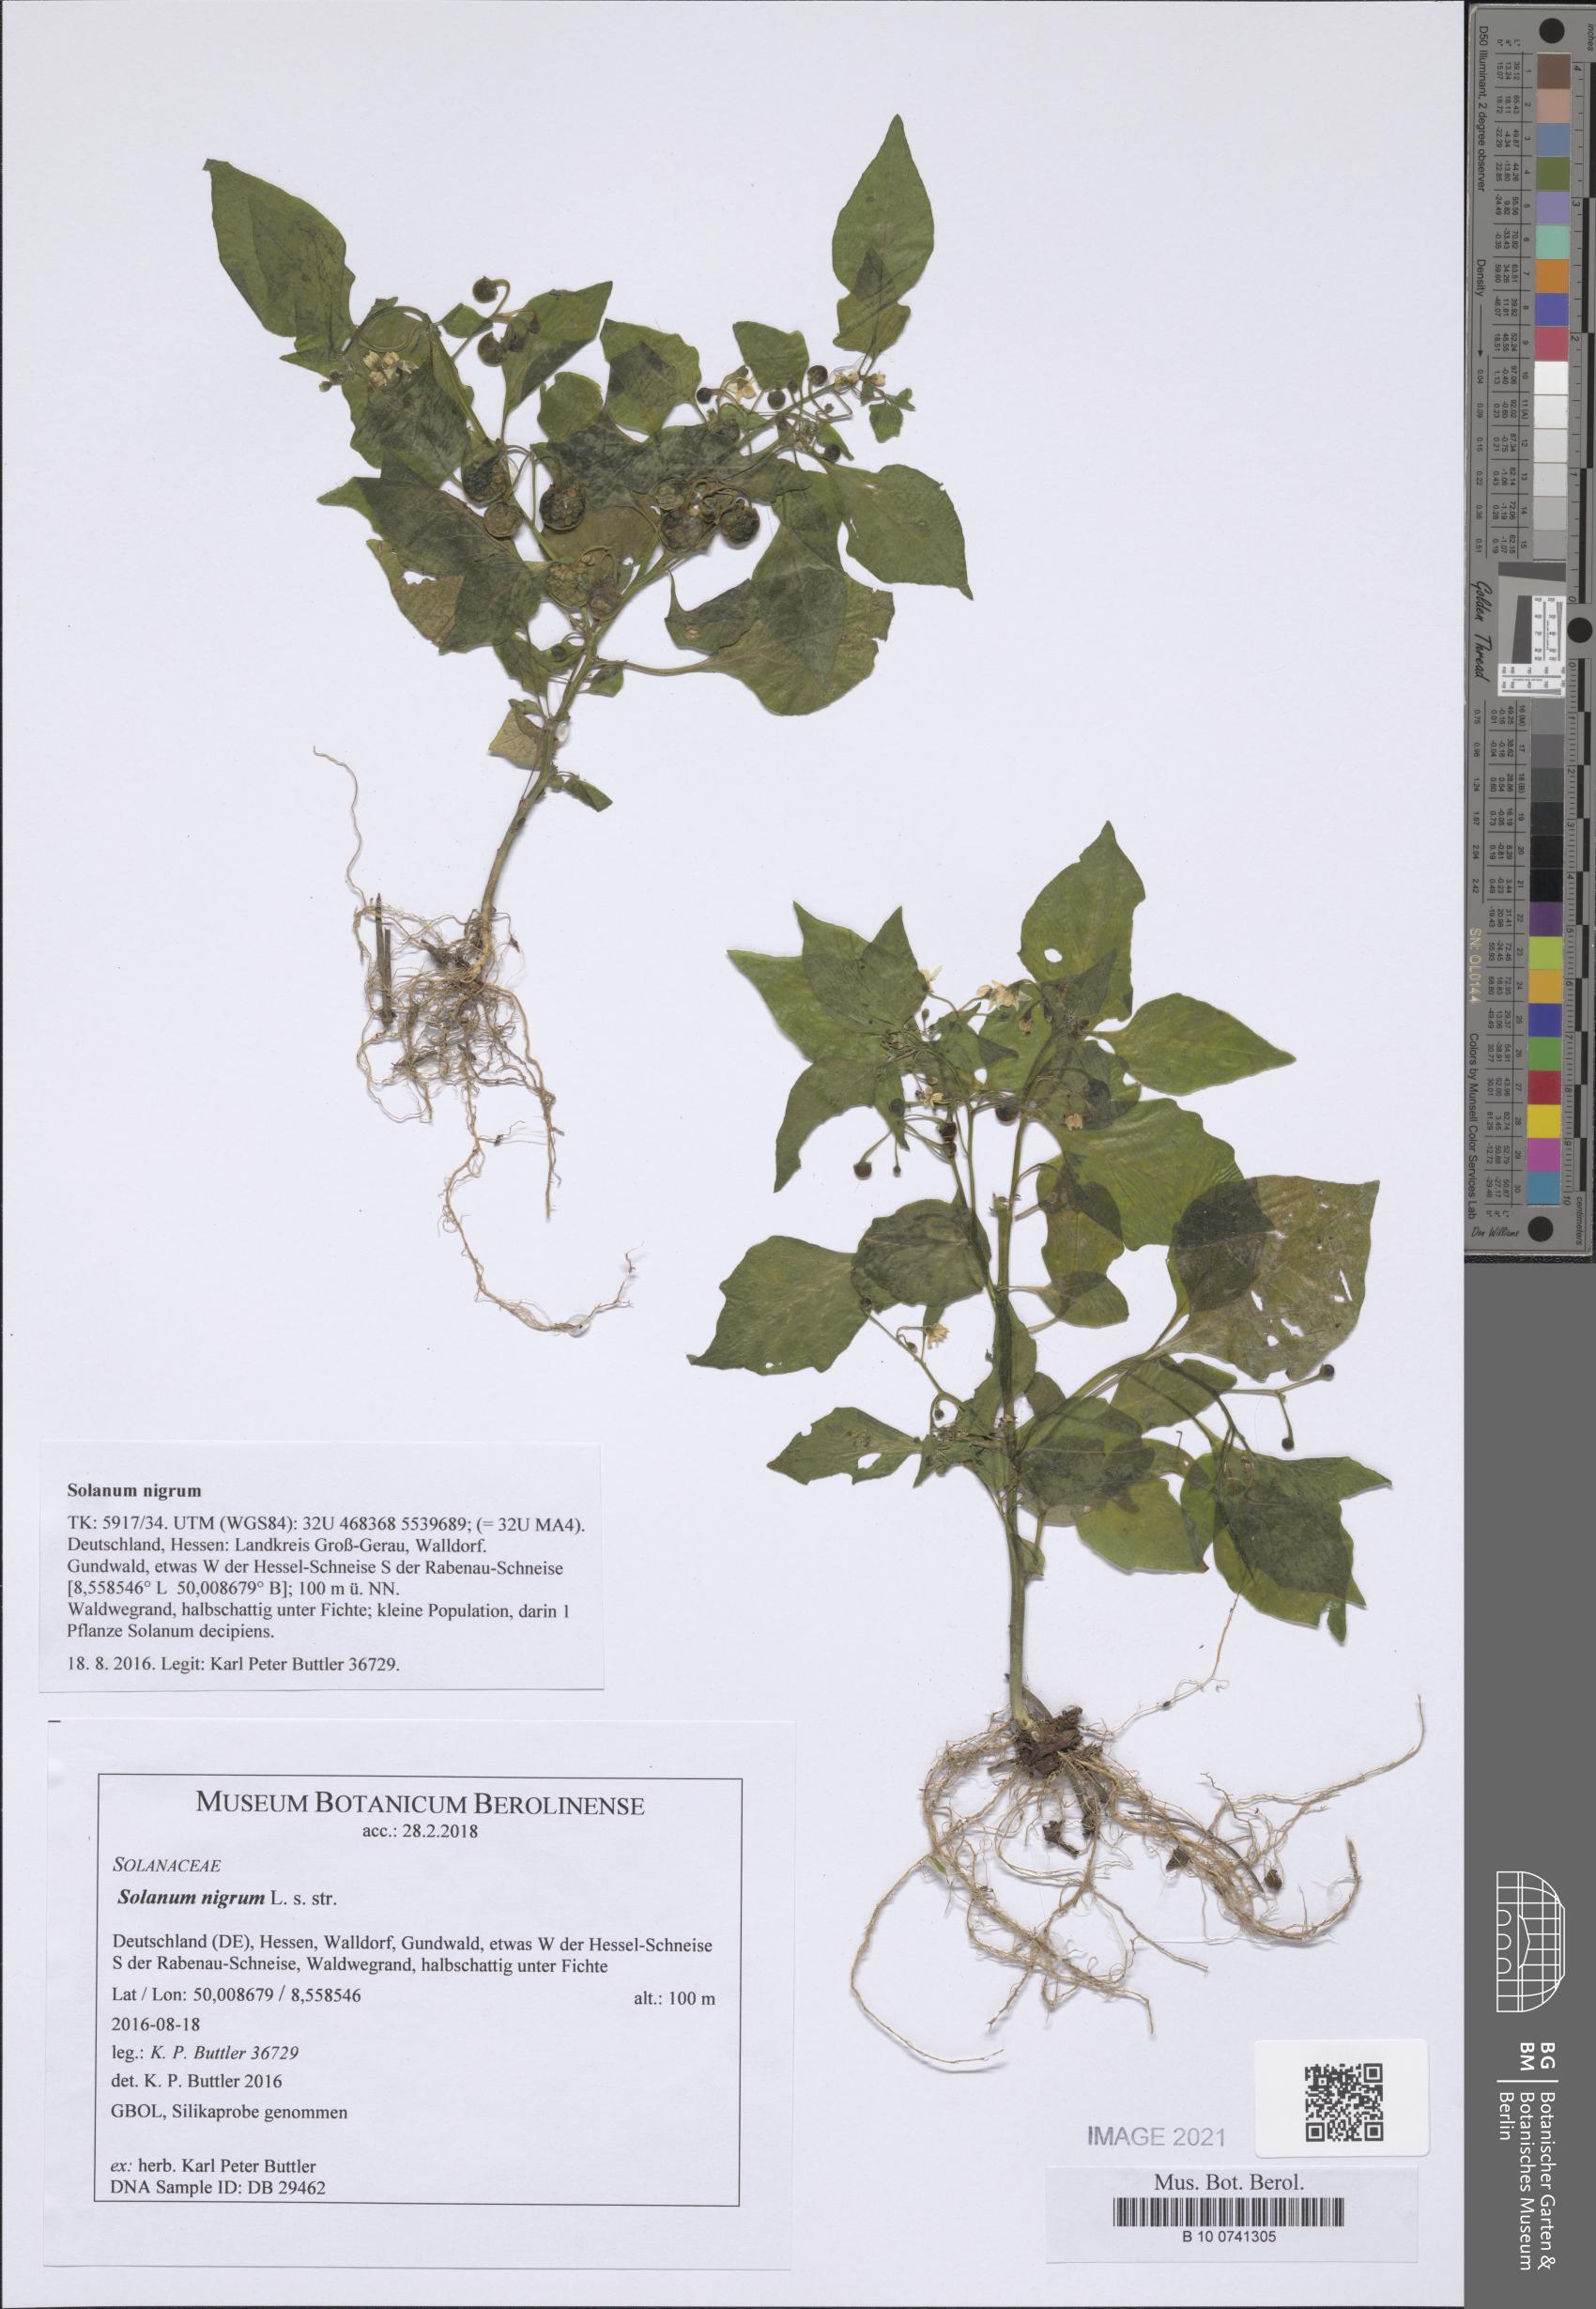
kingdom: Plantae
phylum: Tracheophyta
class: Magnoliopsida
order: Solanales
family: Solanaceae
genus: Solanum
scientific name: Solanum nigrum
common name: Black nightshade
